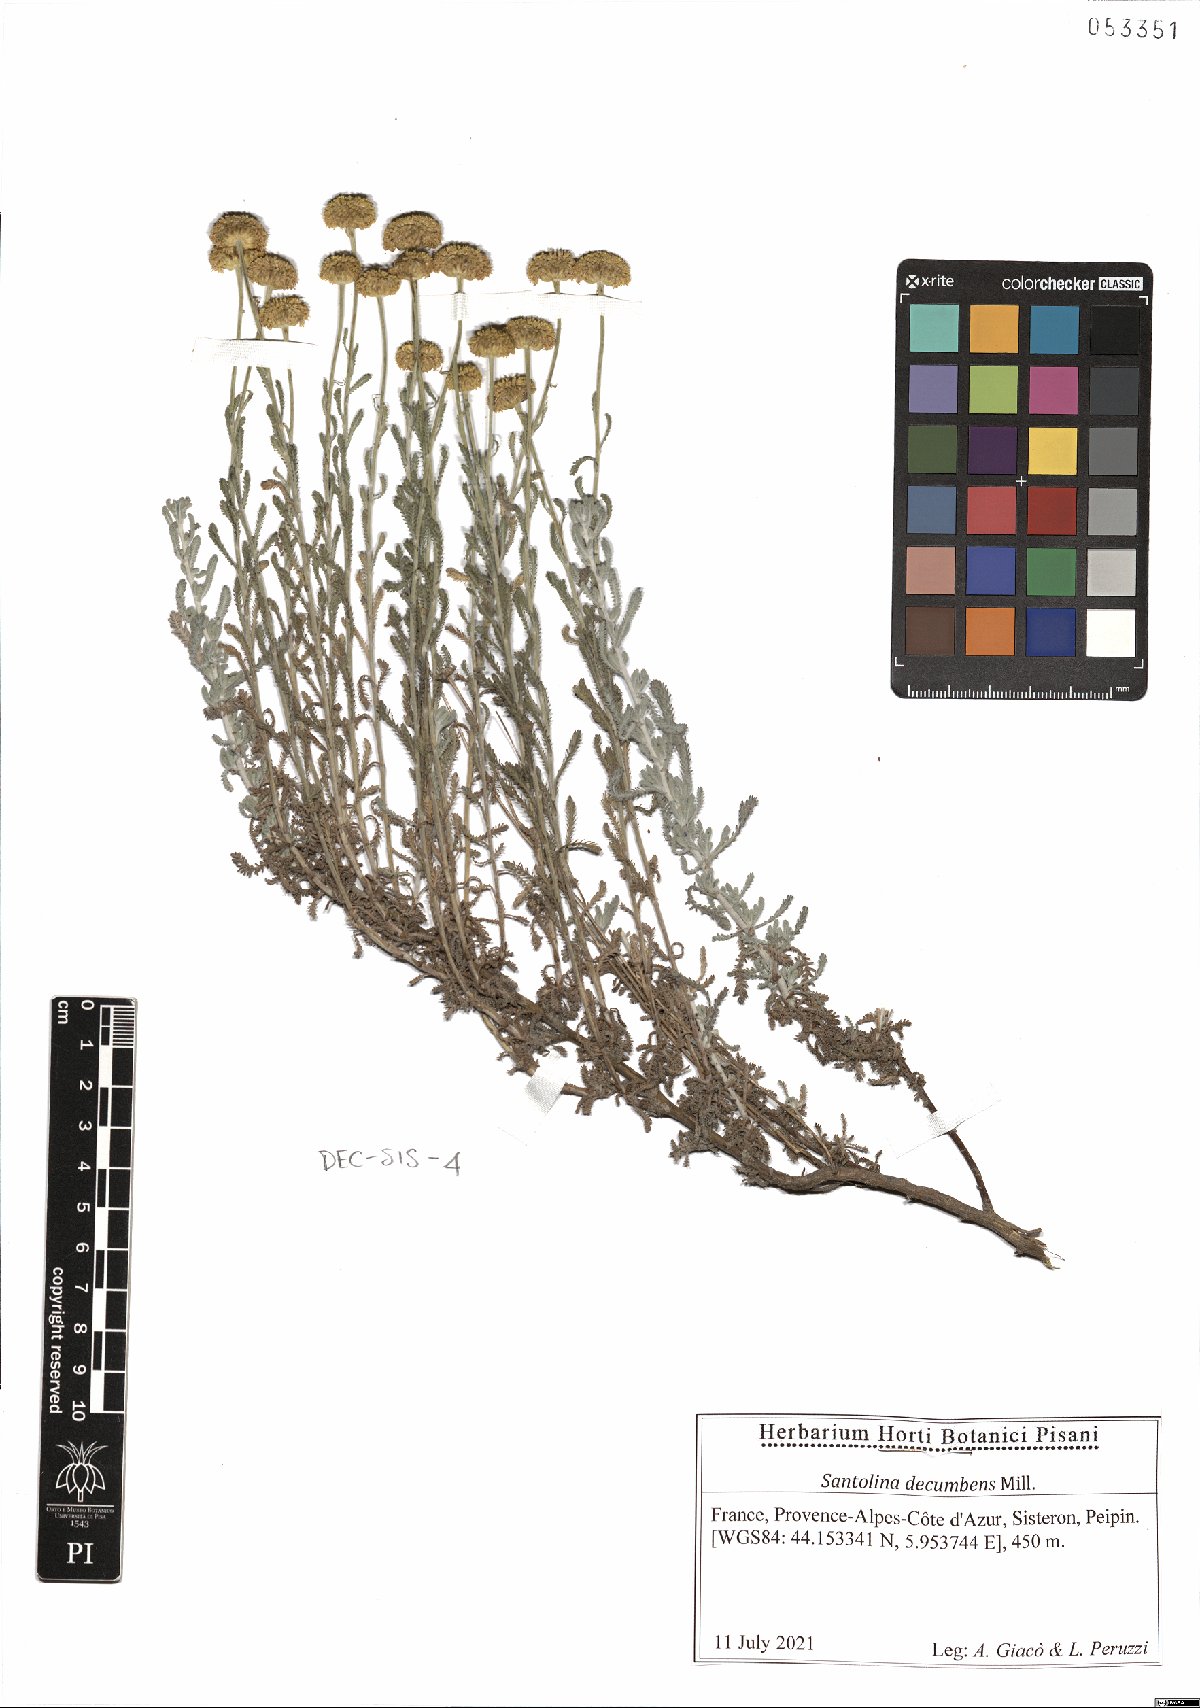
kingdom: Plantae
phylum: Tracheophyta
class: Magnoliopsida
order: Asterales
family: Asteraceae
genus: Santolina
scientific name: Santolina decumbens
